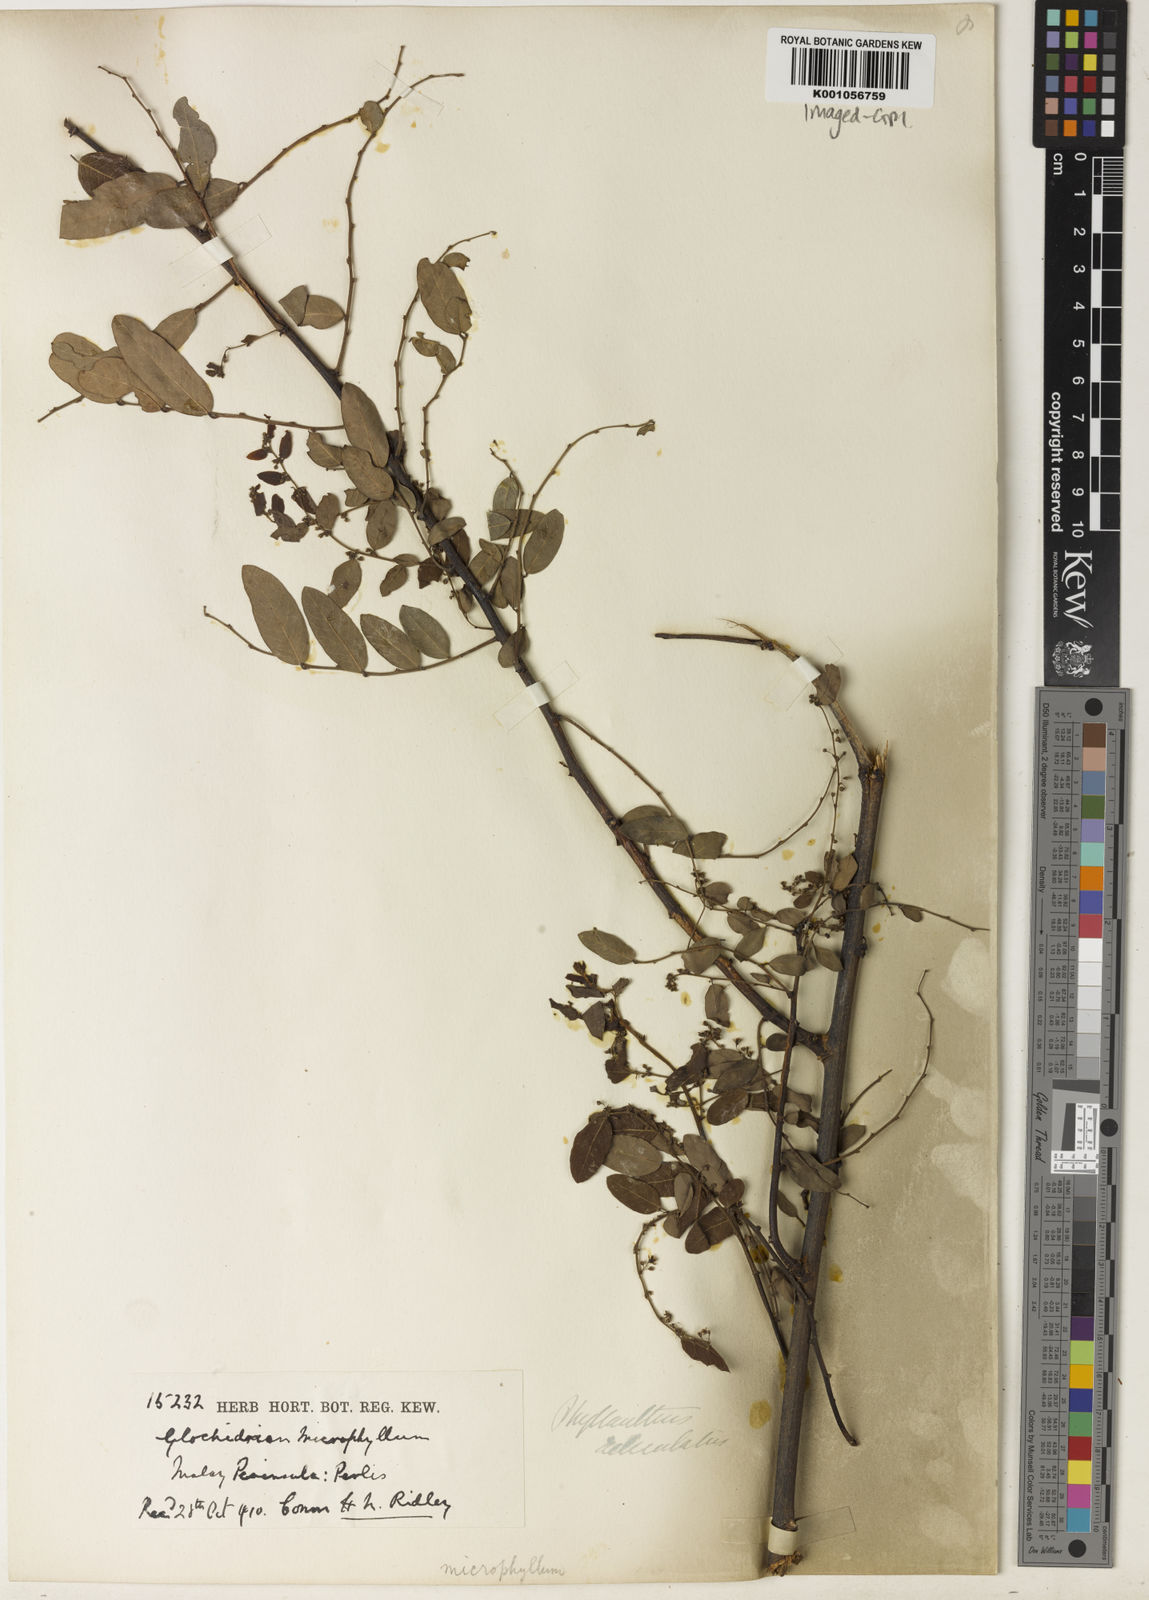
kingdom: Plantae
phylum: Tracheophyta
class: Magnoliopsida
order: Malpighiales
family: Phyllanthaceae
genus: Phyllanthus
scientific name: Phyllanthus
